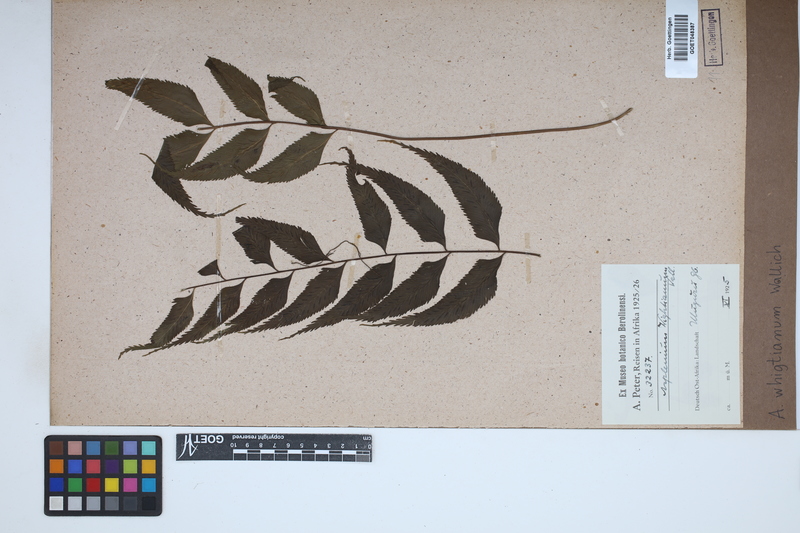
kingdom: Plantae
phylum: Tracheophyta
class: Polypodiopsida
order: Polypodiales
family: Aspleniaceae
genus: Asplenium
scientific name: Asplenium serricula
